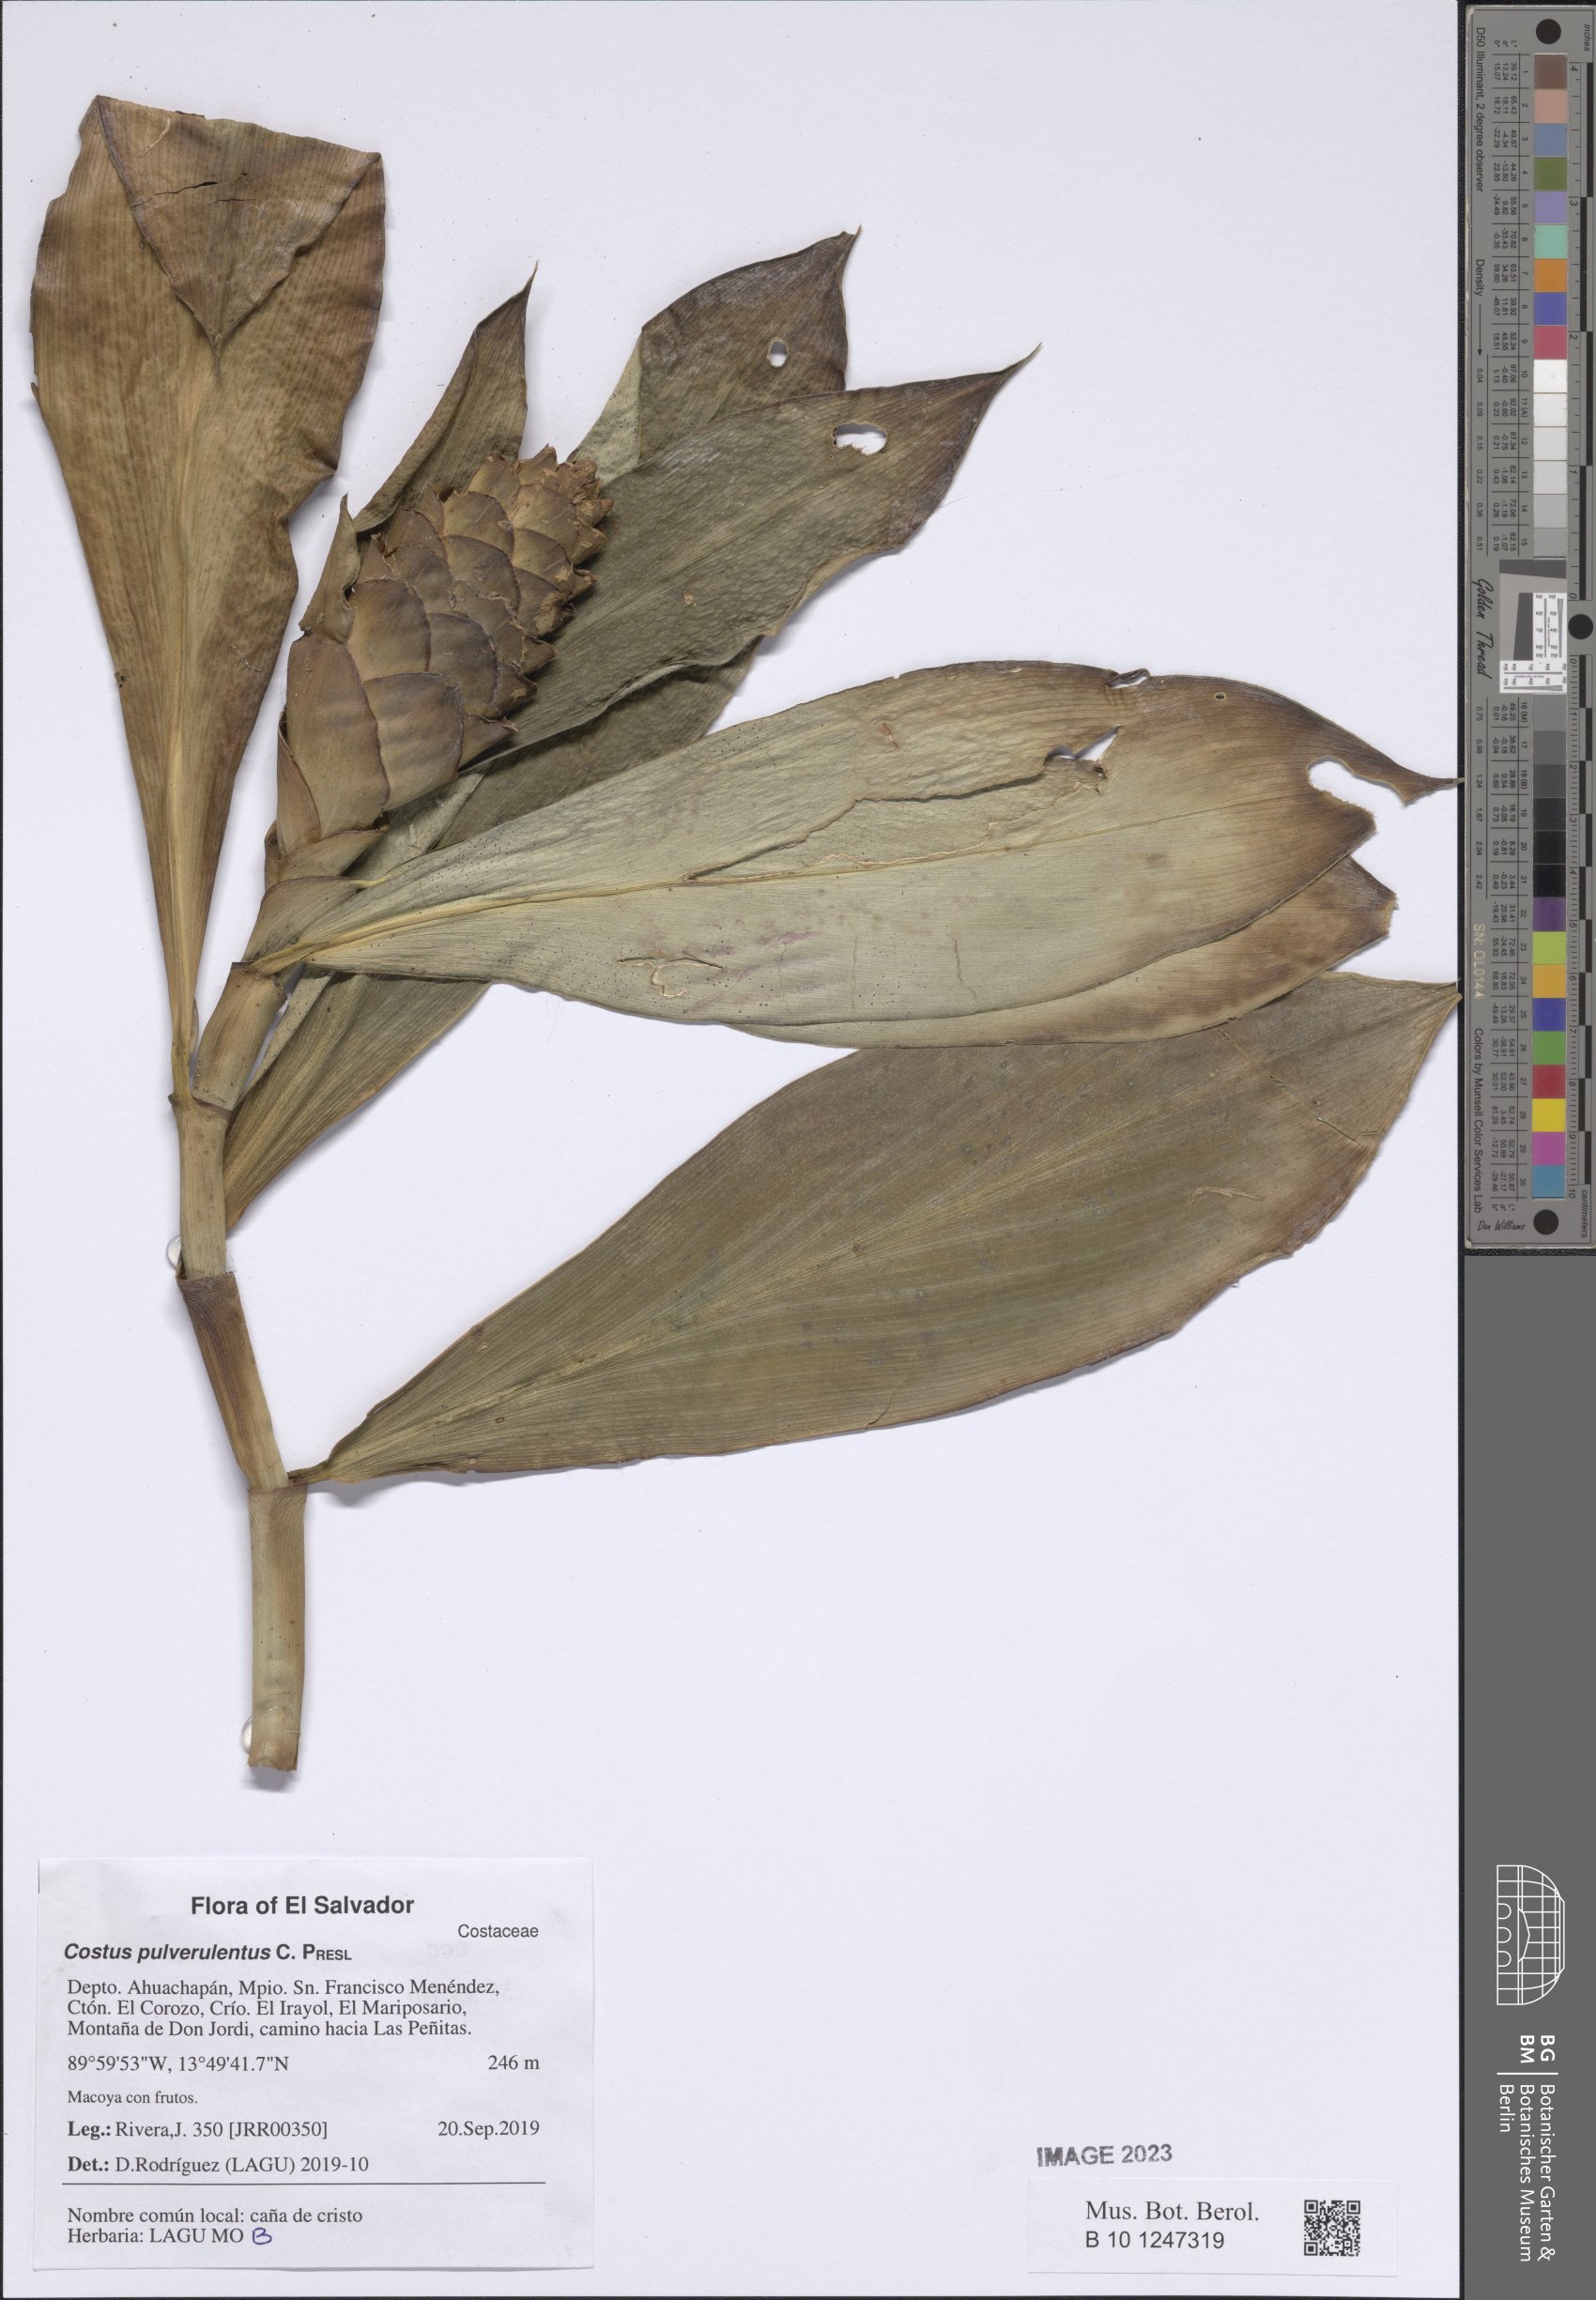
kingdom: Plantae
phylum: Tracheophyta
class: Liliopsida
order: Zingiberales
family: Costaceae
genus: Costus
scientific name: Costus pulverulentus
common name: Spiral ginger
